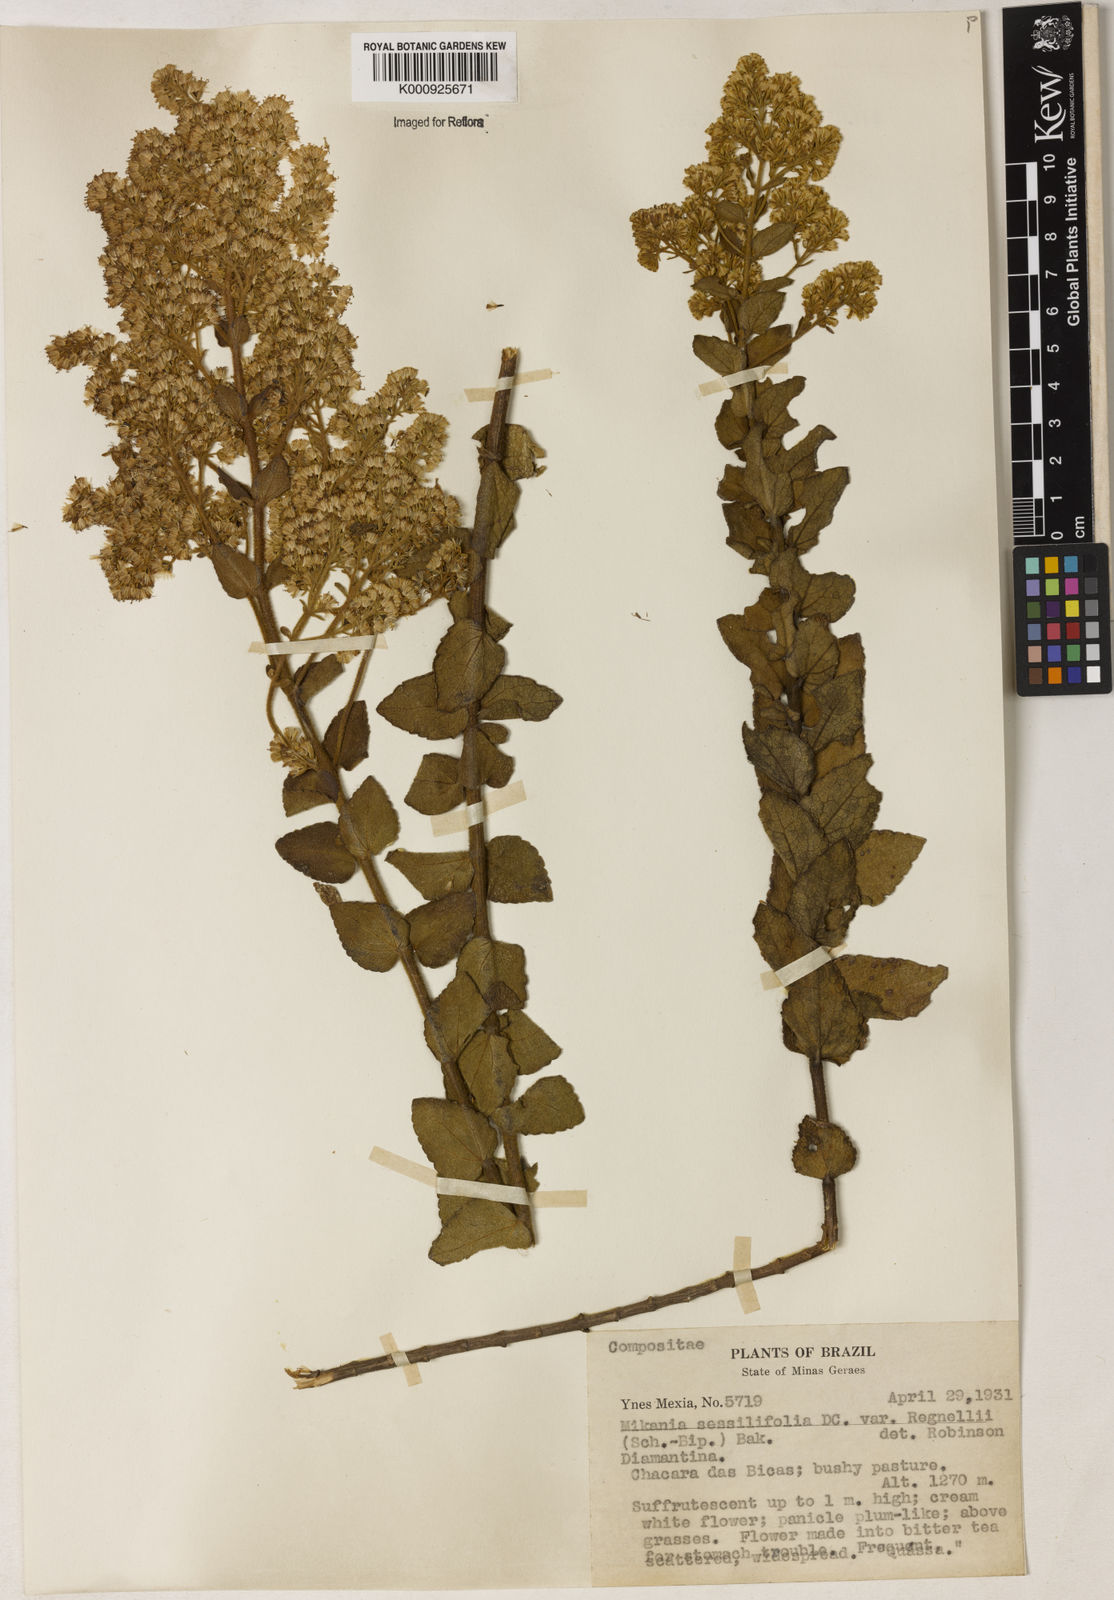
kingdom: Plantae
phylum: Tracheophyta
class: Magnoliopsida
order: Asterales
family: Asteraceae
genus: Mikania
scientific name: Mikania sessilifolia
